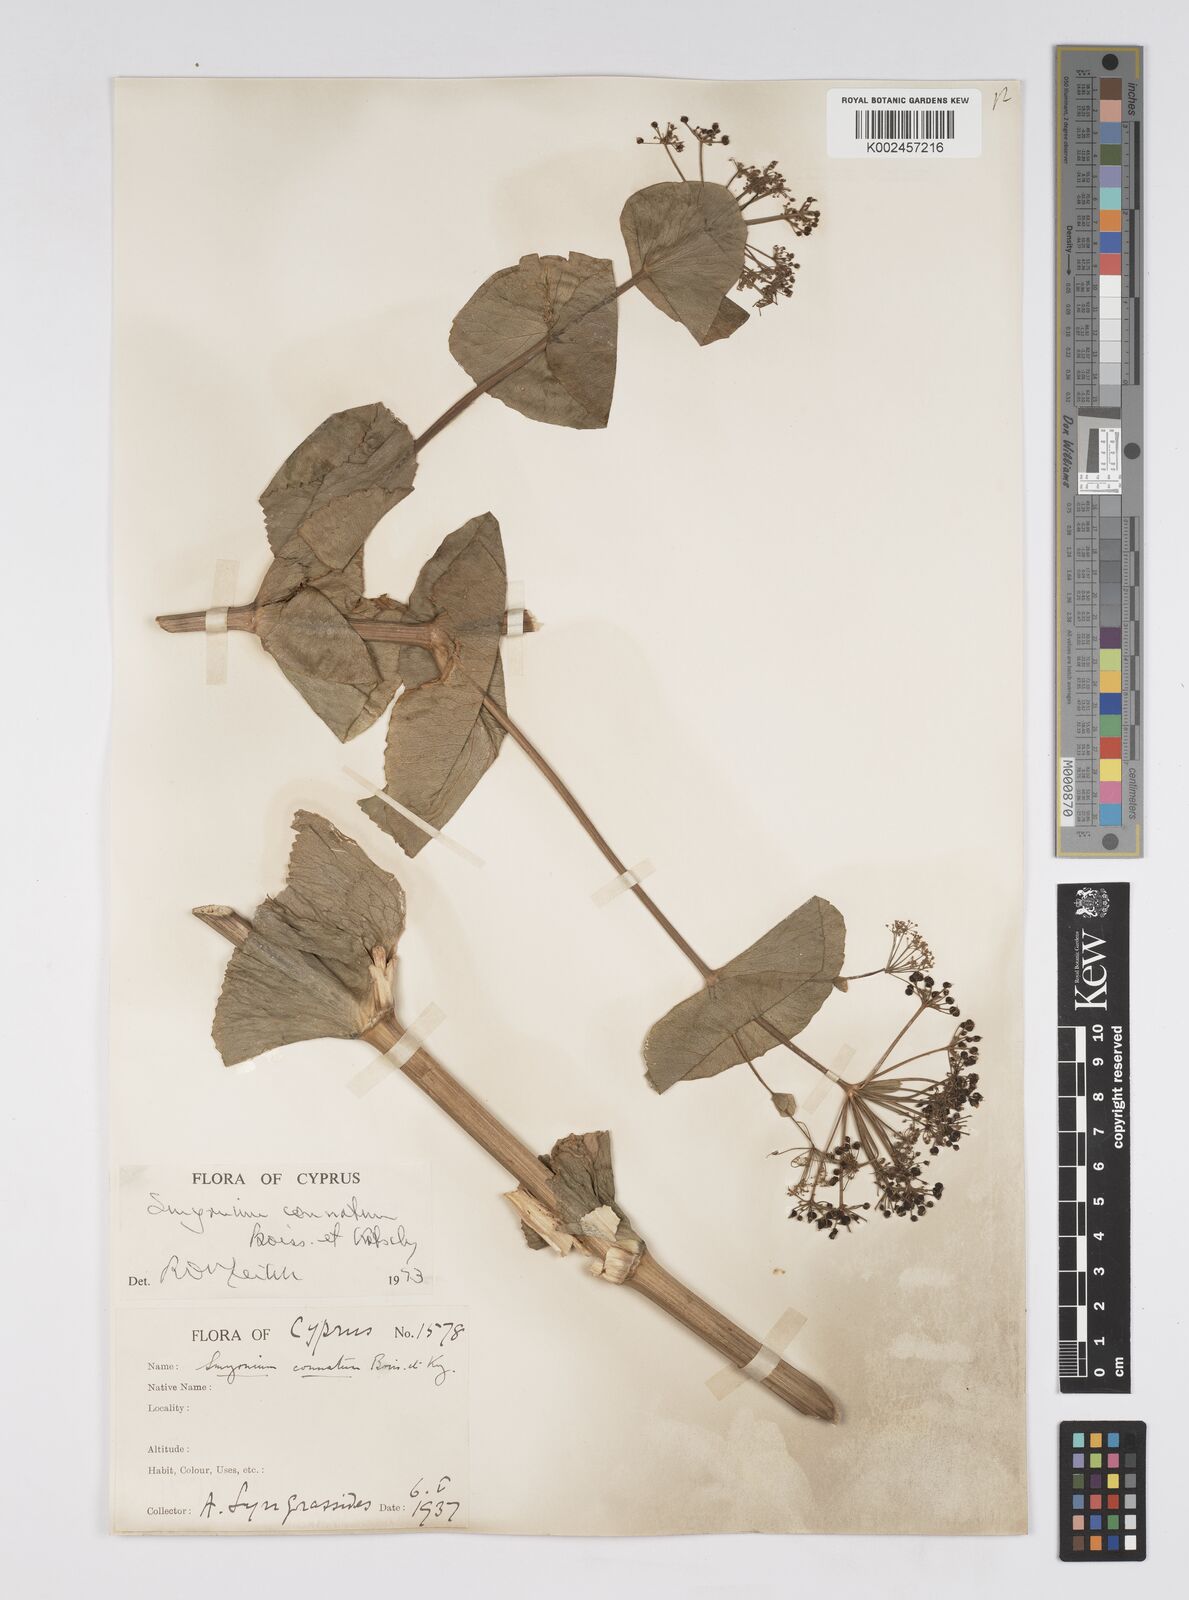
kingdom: Plantae
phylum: Tracheophyta
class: Magnoliopsida
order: Apiales
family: Apiaceae
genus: Smyrnium
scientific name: Smyrnium connatum
